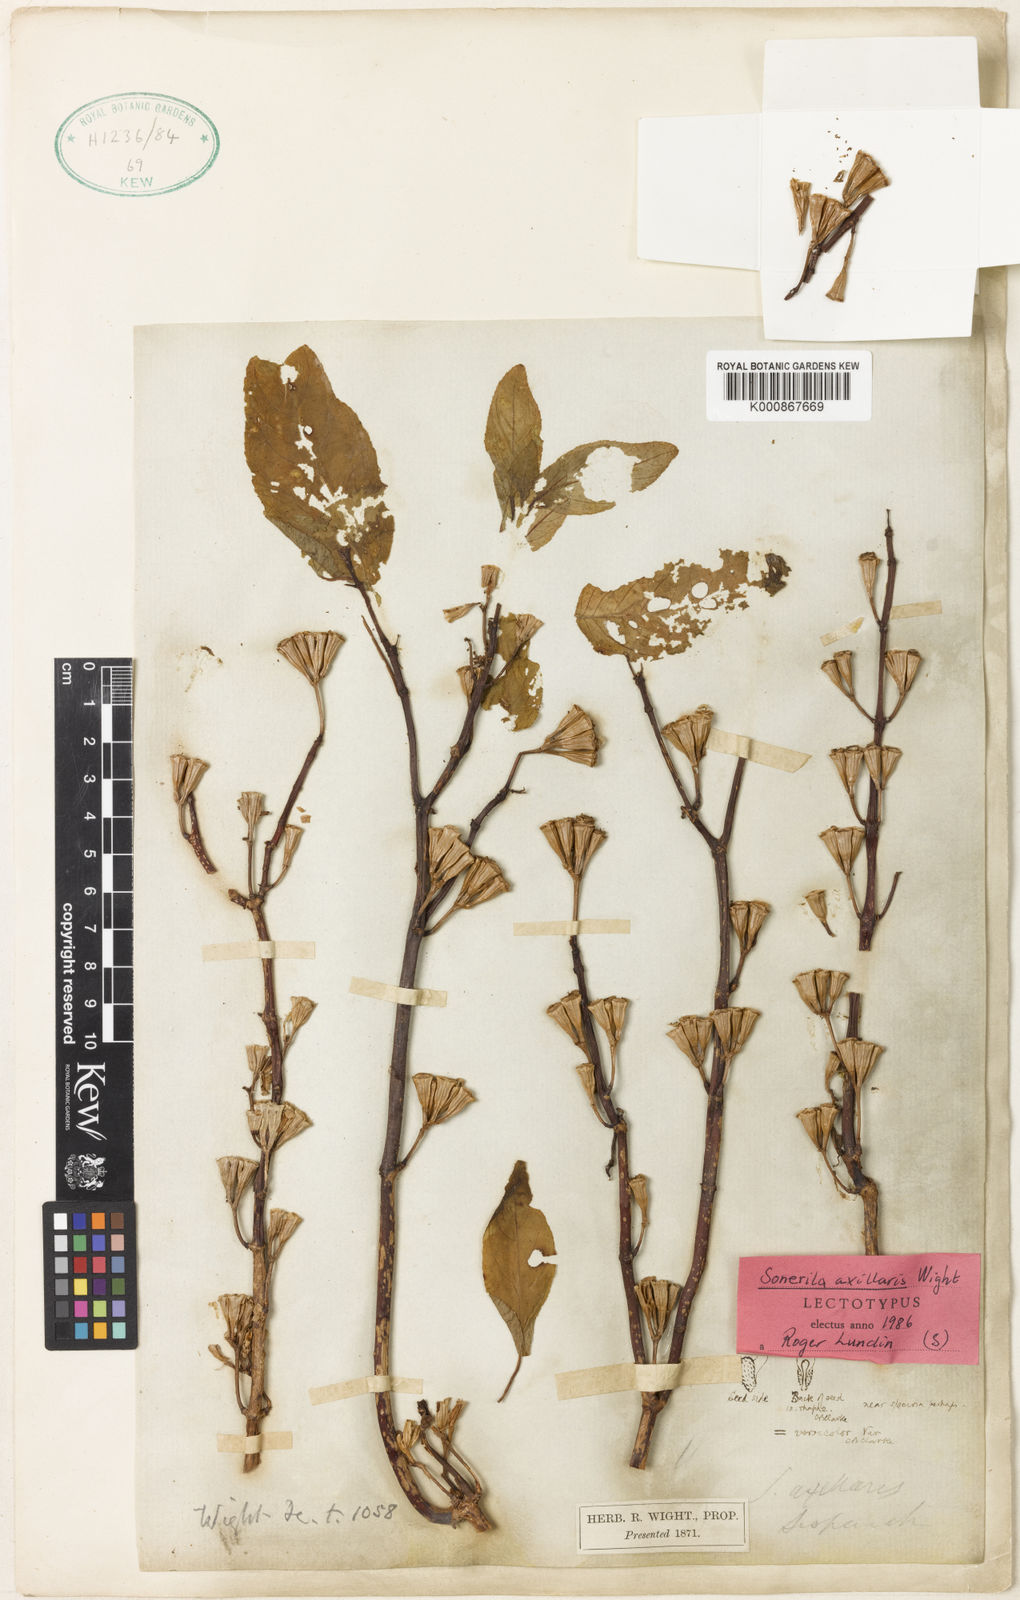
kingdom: Plantae
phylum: Tracheophyta
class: Magnoliopsida
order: Myrtales
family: Melastomataceae
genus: Sonerila
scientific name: Sonerila versicolor
